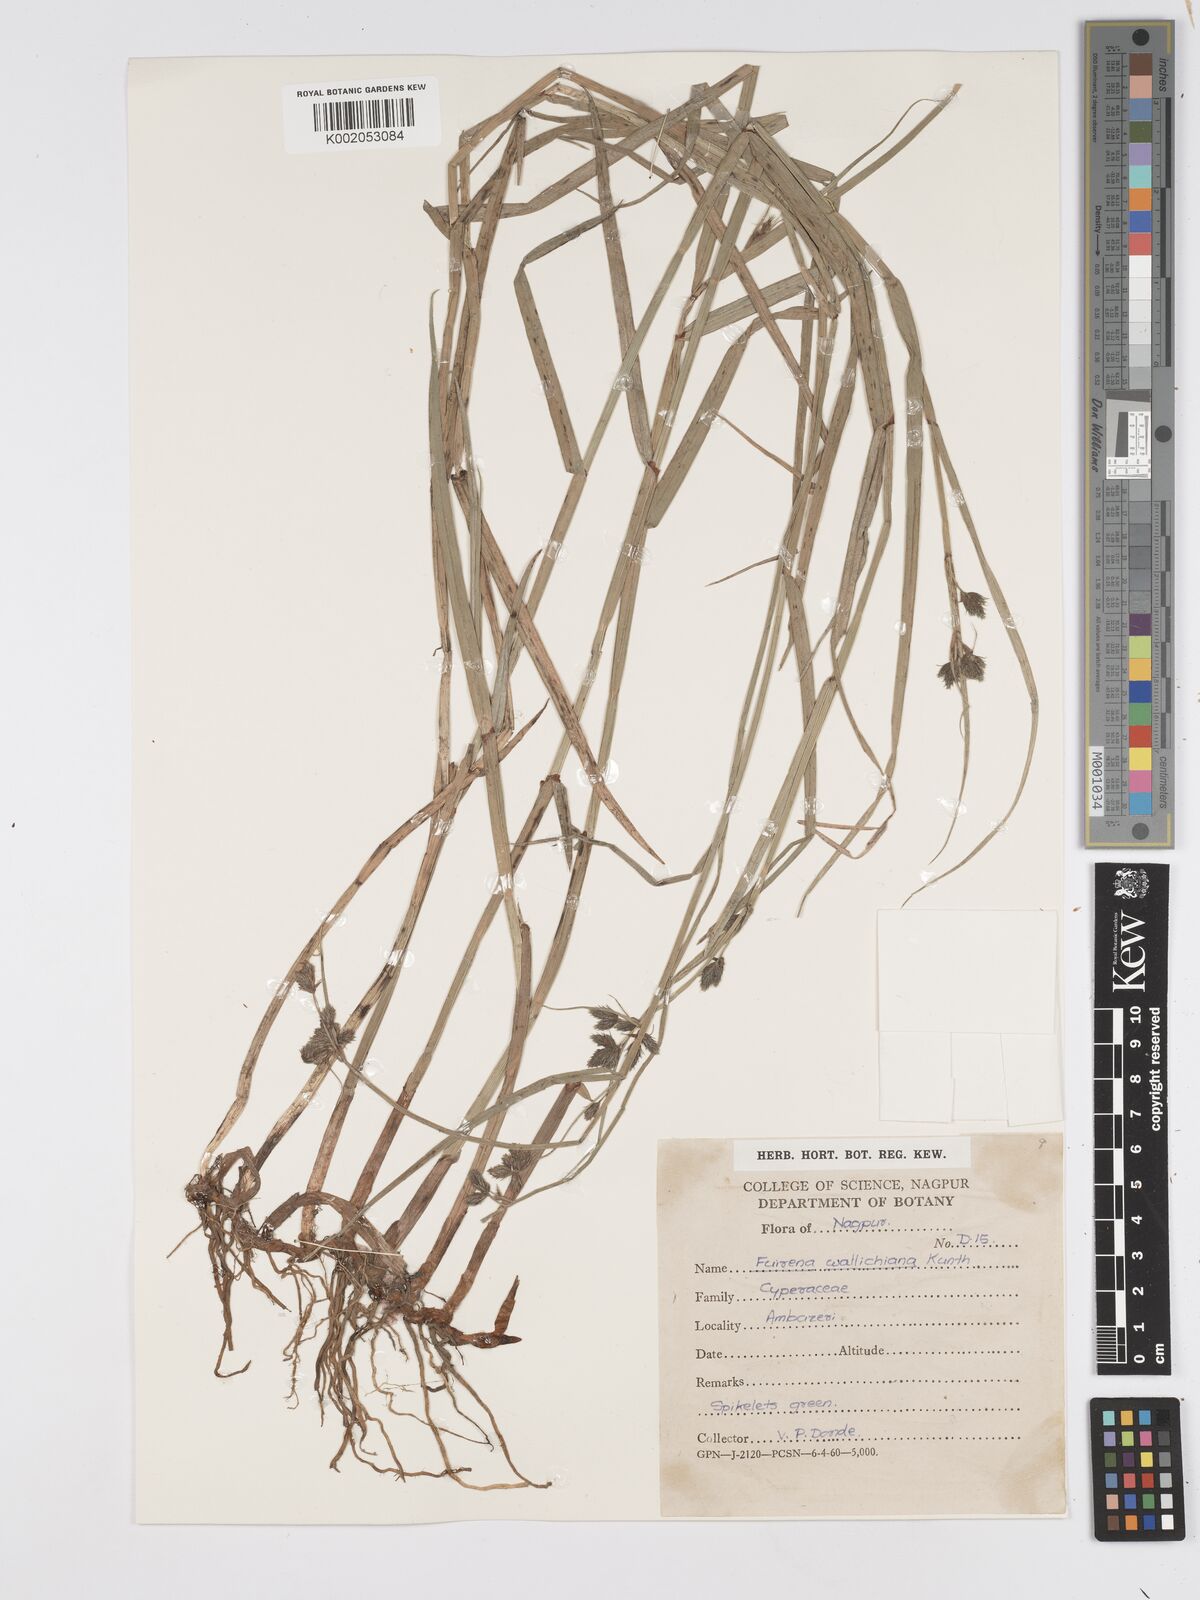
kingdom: Plantae
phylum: Tracheophyta
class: Liliopsida
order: Poales
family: Cyperaceae
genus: Fuirena
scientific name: Fuirena cuspidata
